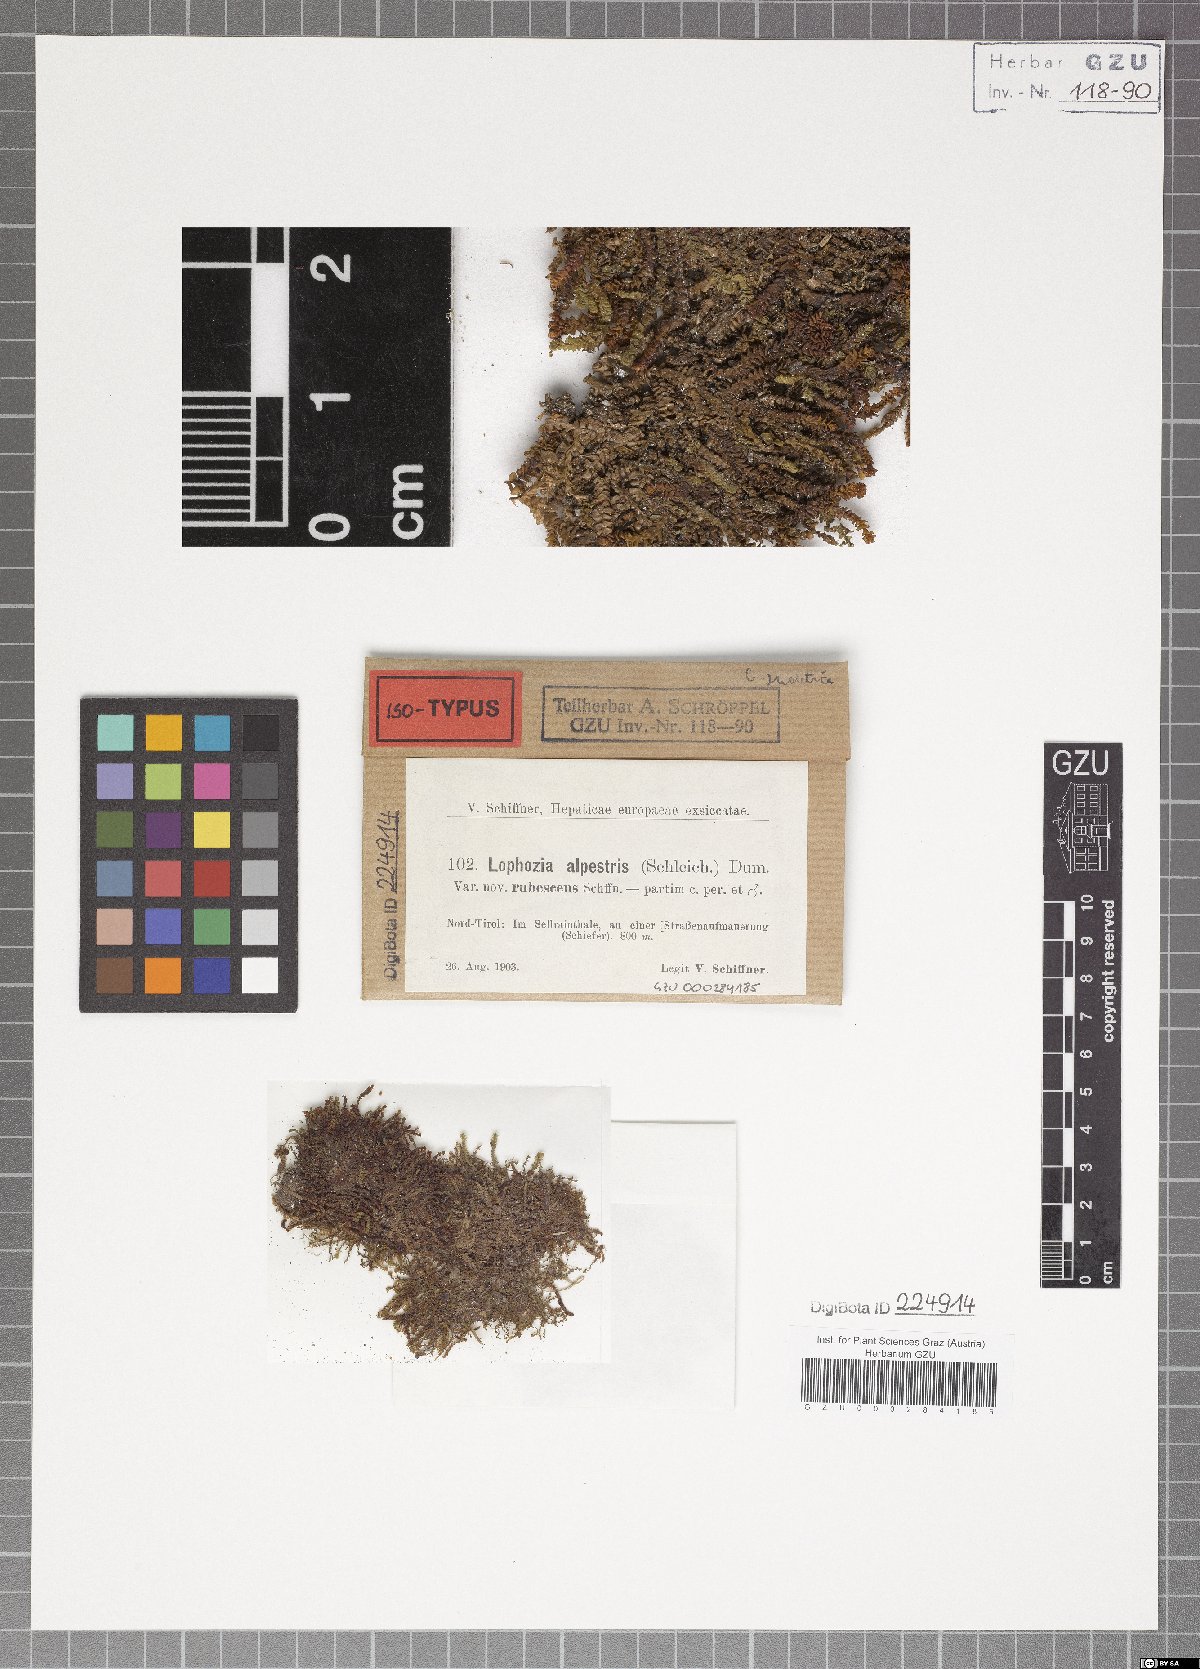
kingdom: Plantae
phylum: Marchantiophyta
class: Jungermanniopsida
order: Jungermanniales
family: Jungermanniaceae
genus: Mesoptychia
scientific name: Mesoptychia collaris
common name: Collared notchwort
